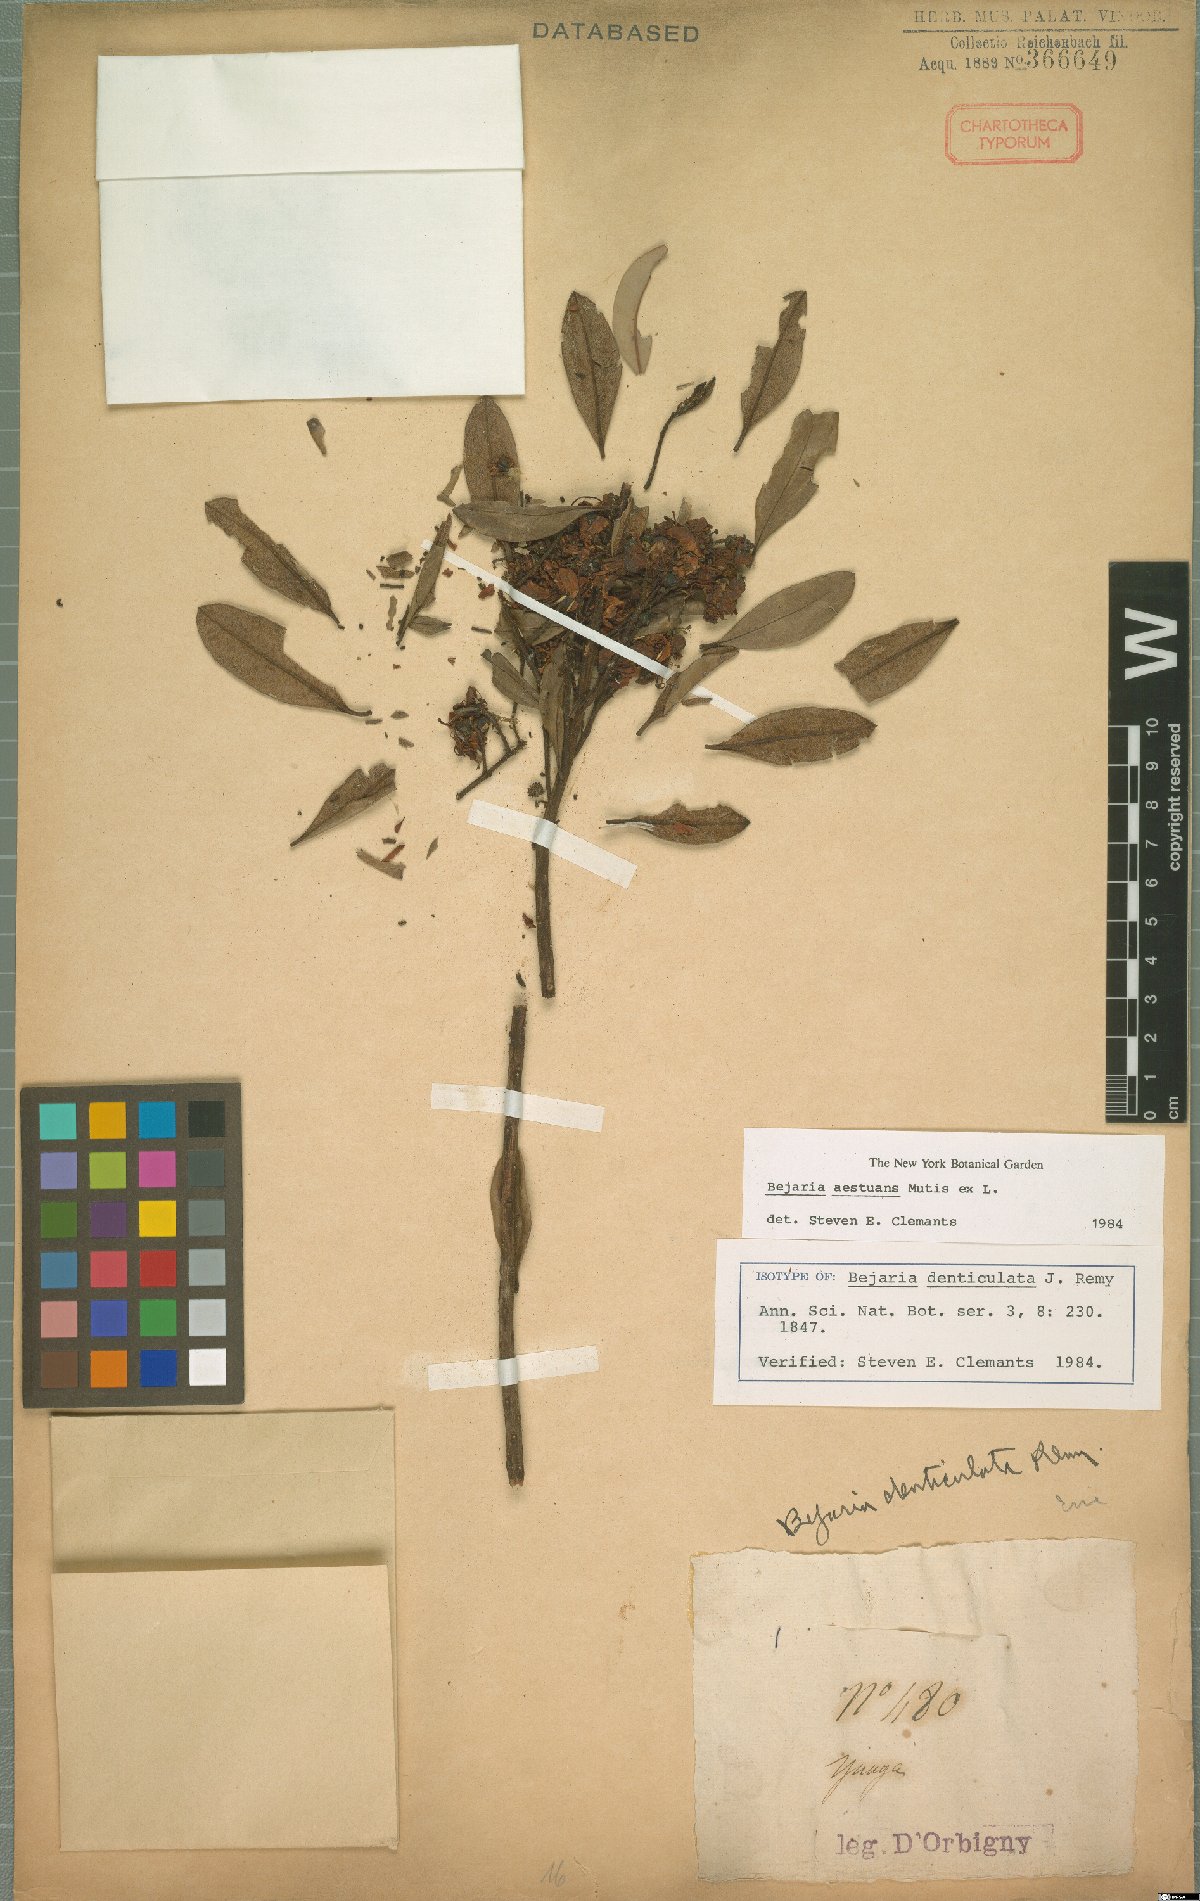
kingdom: Plantae
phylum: Tracheophyta
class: Magnoliopsida
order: Ericales
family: Ericaceae
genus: Bejaria
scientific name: Bejaria aestuans
